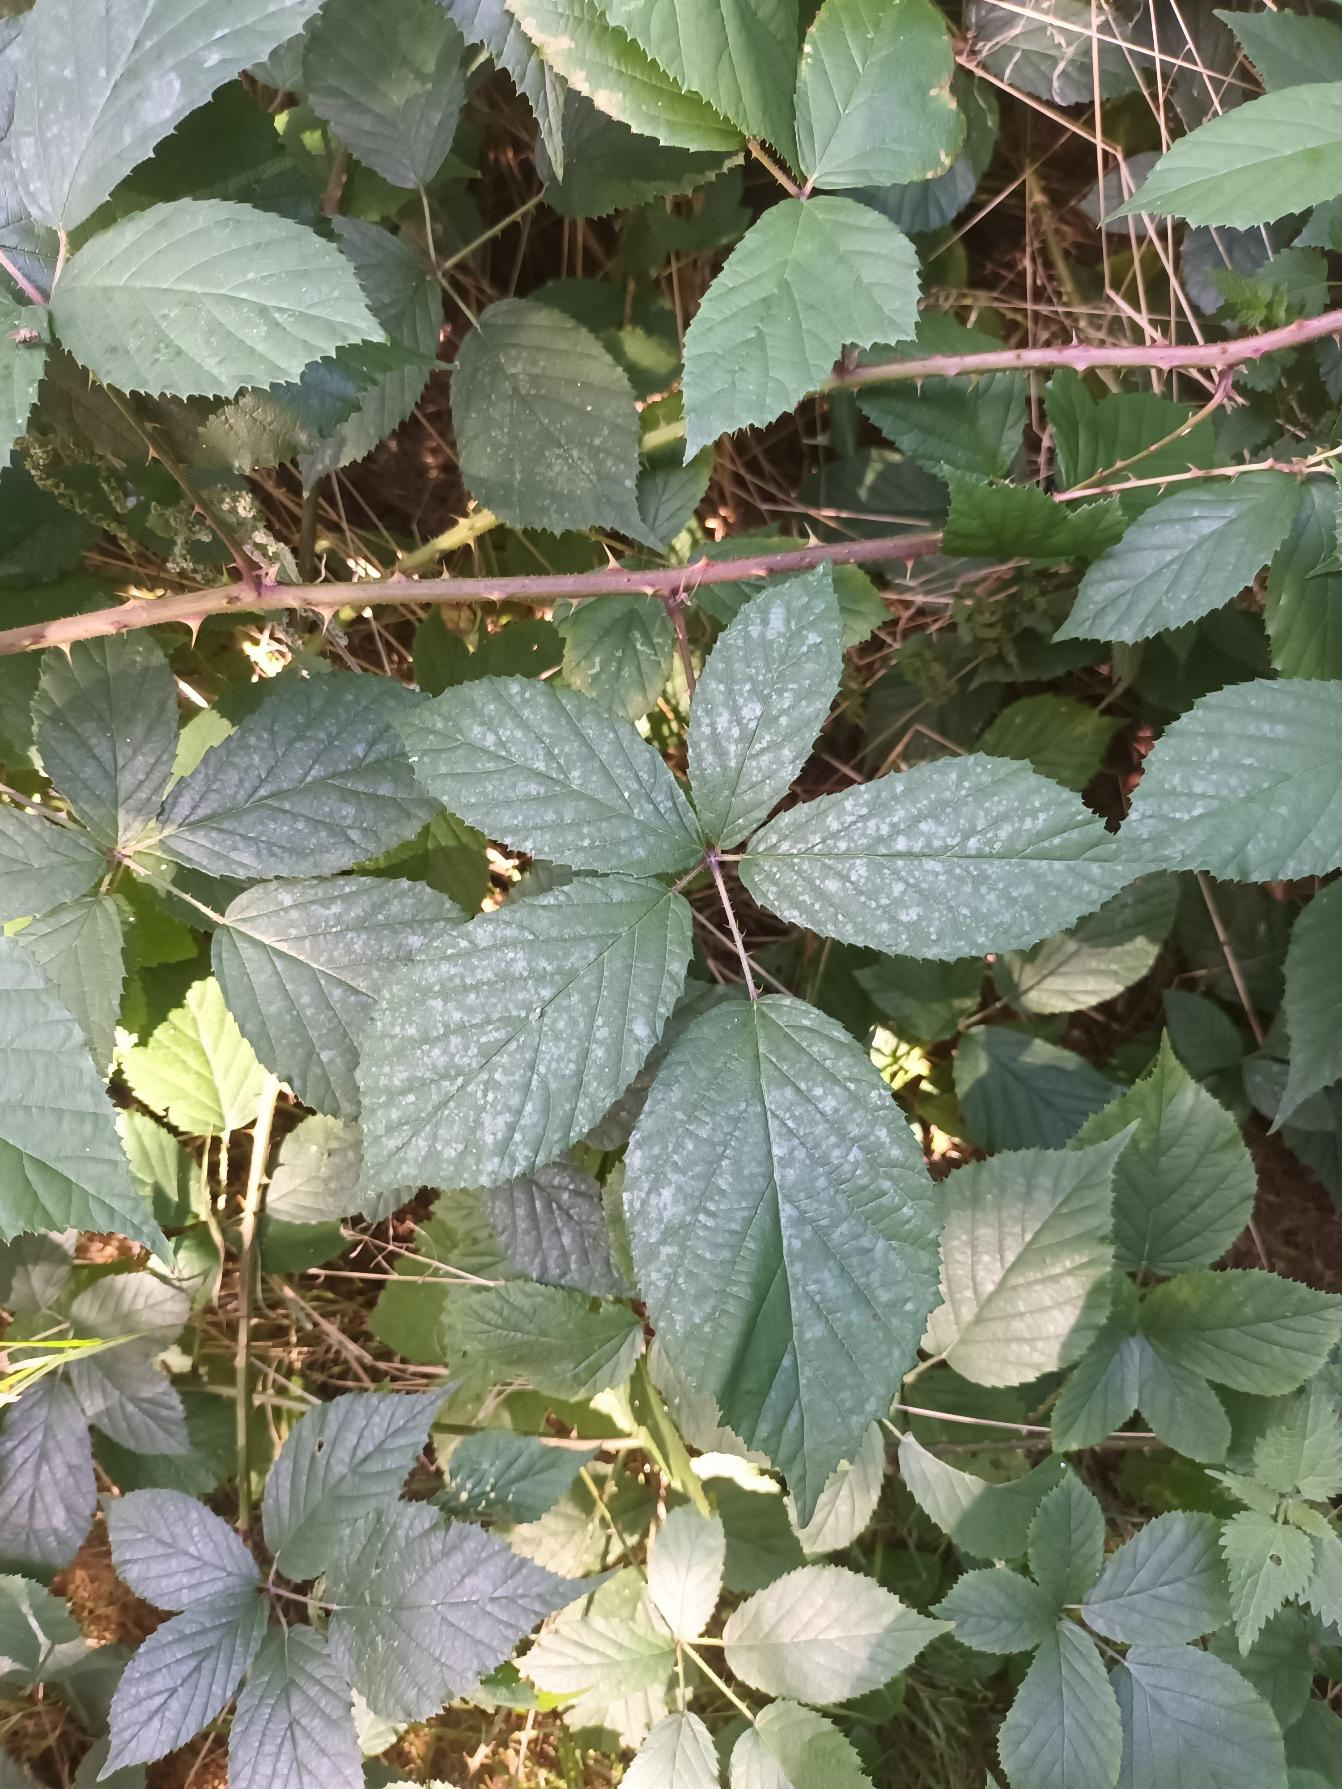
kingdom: Plantae
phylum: Tracheophyta
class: Magnoliopsida
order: Rosales
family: Rosaceae
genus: Rubus
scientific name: Rubus radula
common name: Rasperu brombær
